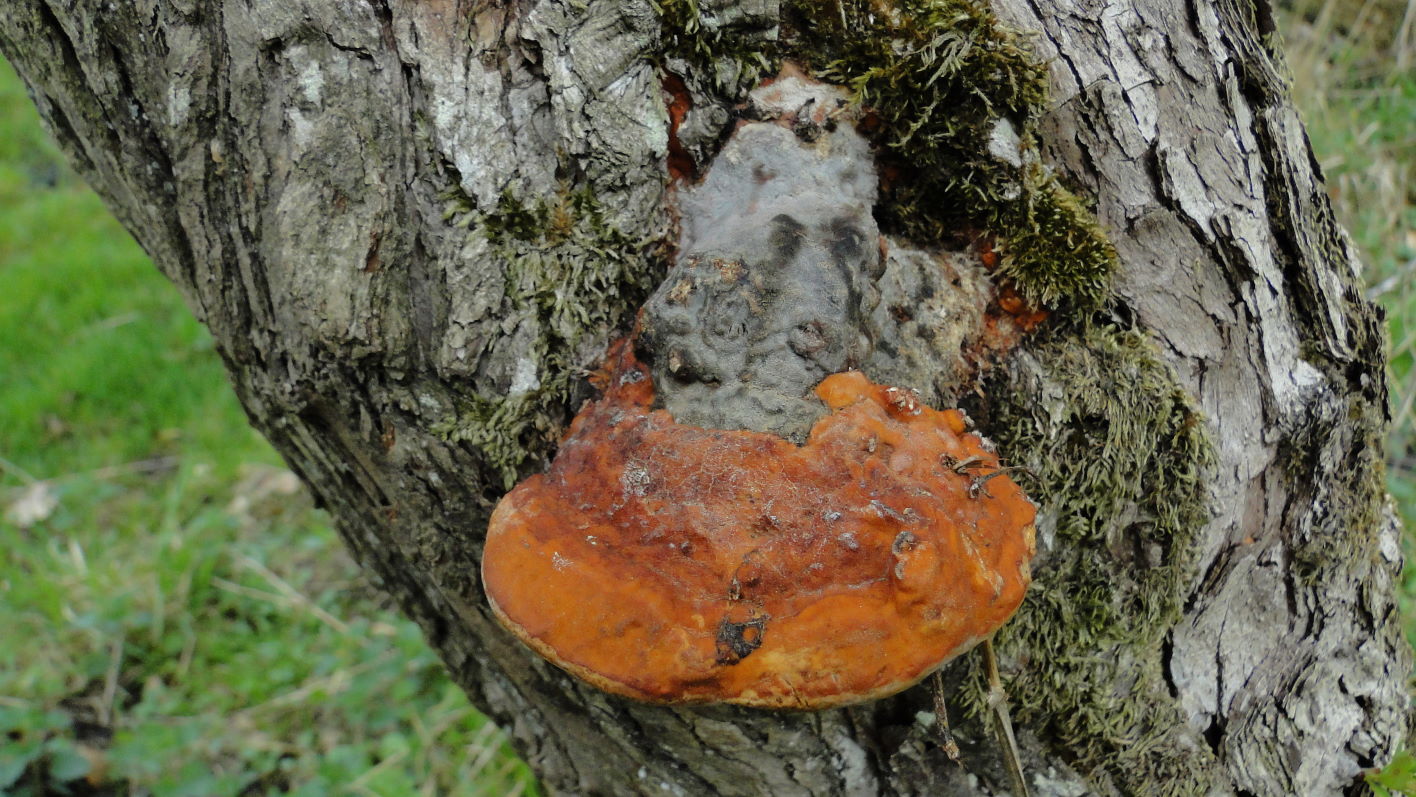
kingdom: Fungi
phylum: Basidiomycota
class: Agaricomycetes
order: Polyporales
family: Fomitopsidaceae
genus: Fomitopsis
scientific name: Fomitopsis pinicola
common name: randbæltet hovporesvamp
